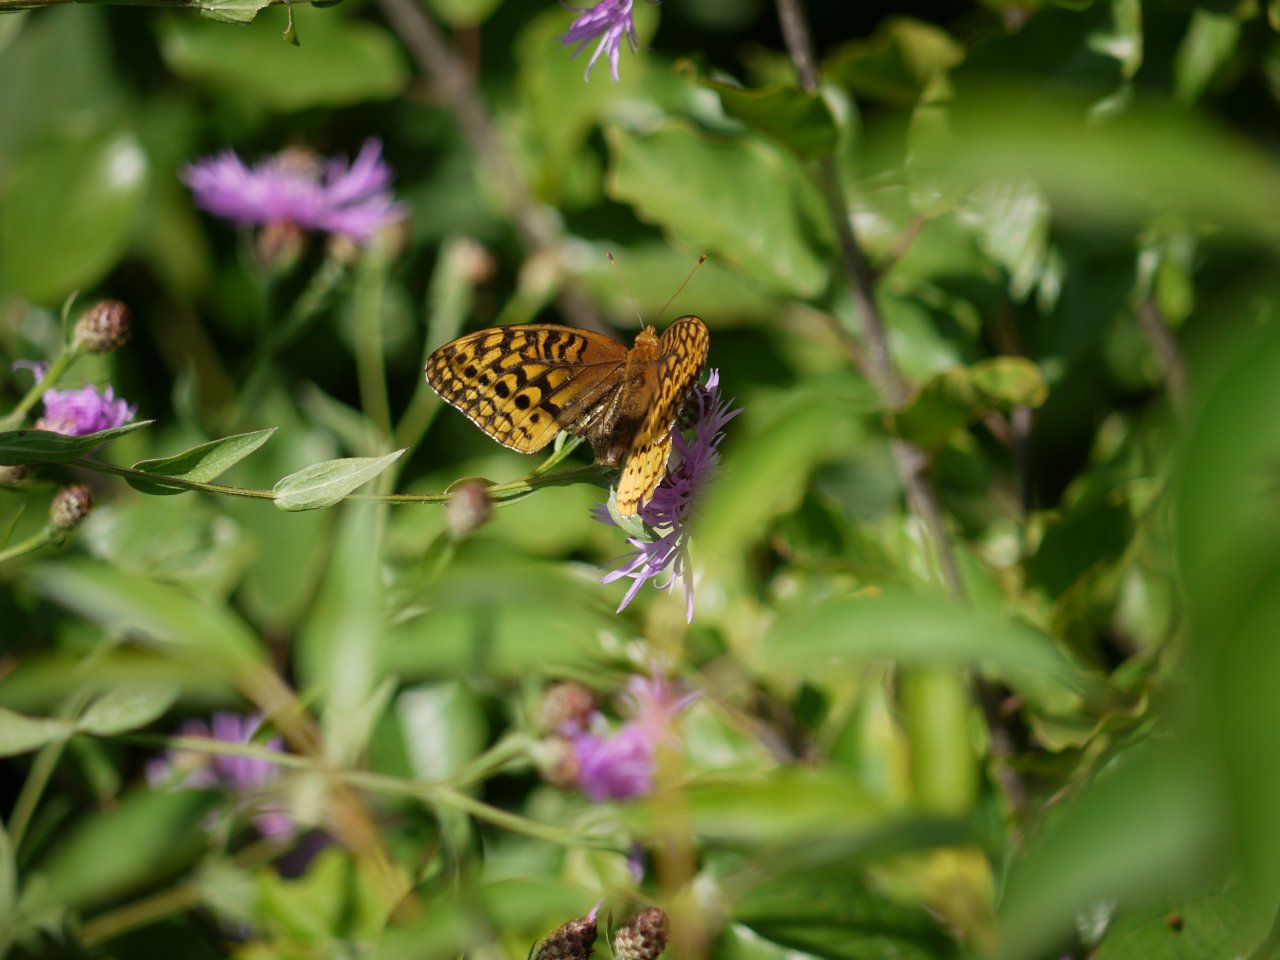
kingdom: Animalia
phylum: Arthropoda
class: Insecta
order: Lepidoptera
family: Nymphalidae
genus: Speyeria
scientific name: Speyeria cybele
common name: Great Spangled Fritillary
